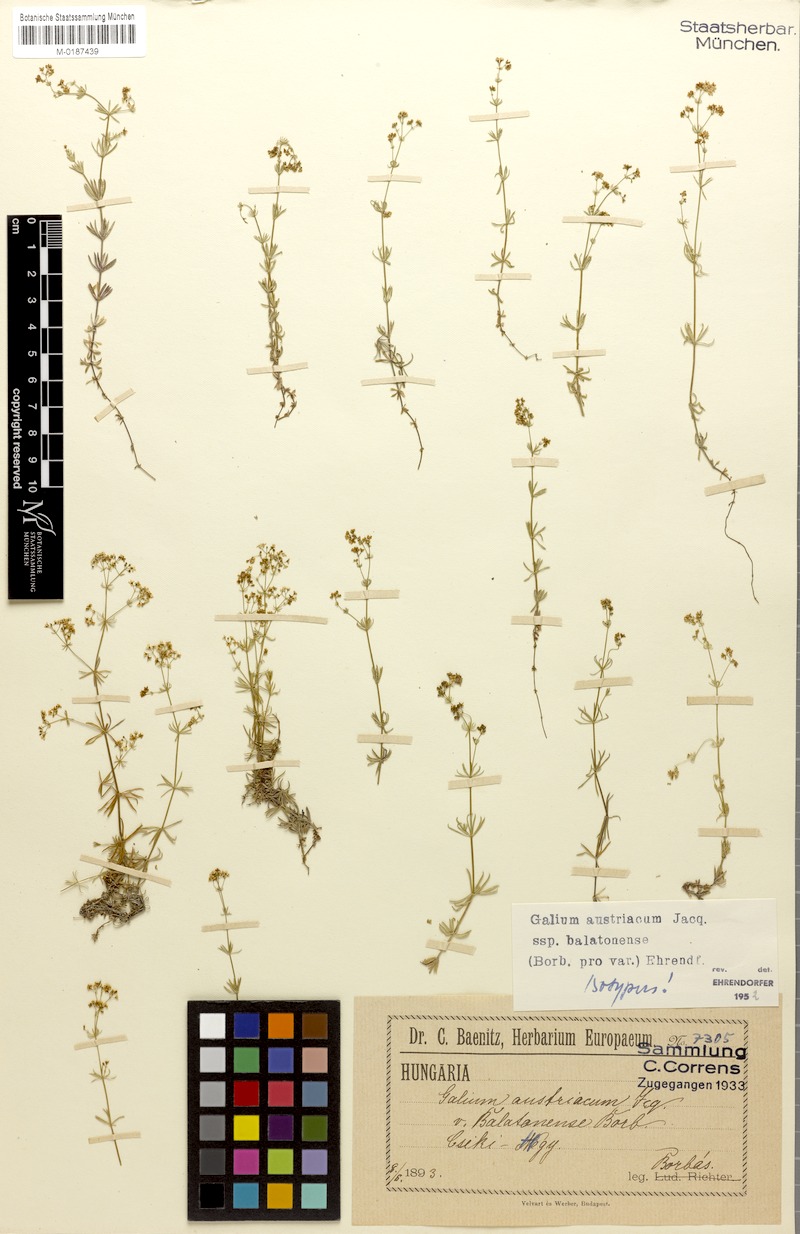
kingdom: Plantae
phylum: Tracheophyta
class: Magnoliopsida
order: Gentianales
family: Rubiaceae
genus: Galium
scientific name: Galium austriacum
